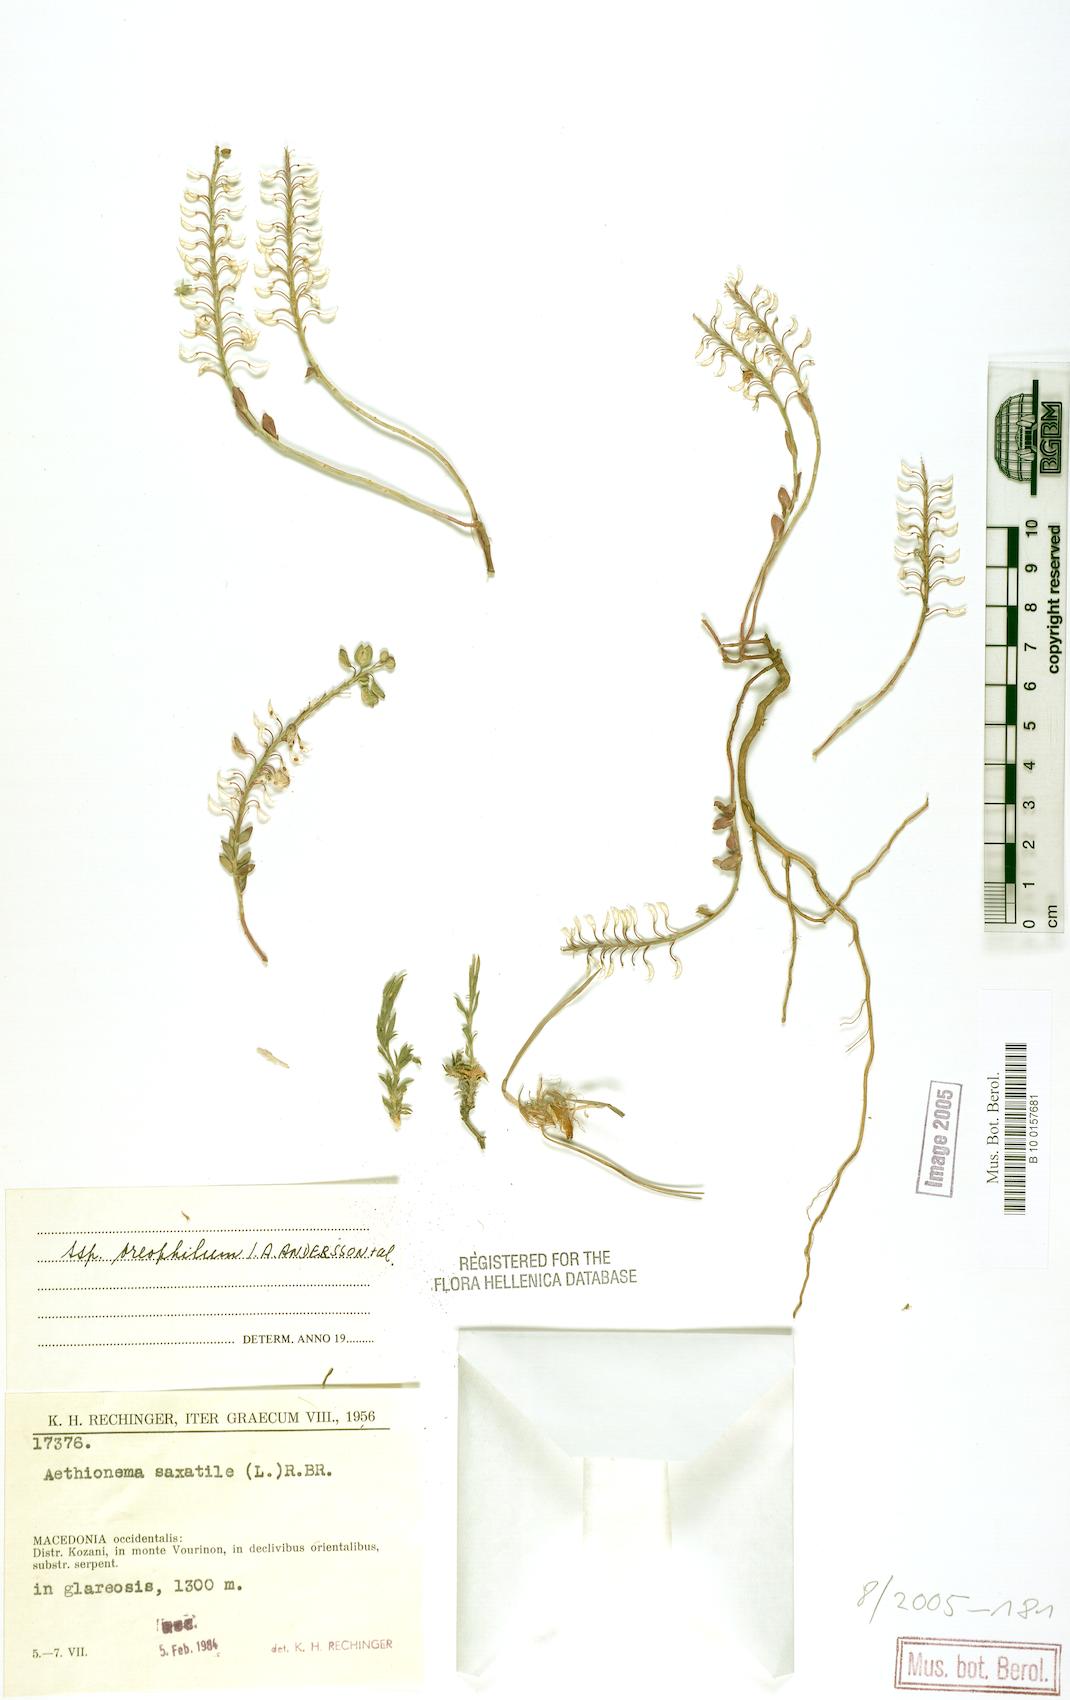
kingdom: Plantae
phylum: Tracheophyta
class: Magnoliopsida
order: Brassicales
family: Brassicaceae
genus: Aethionema
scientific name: Aethionema saxatile
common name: Burnt candytuft
